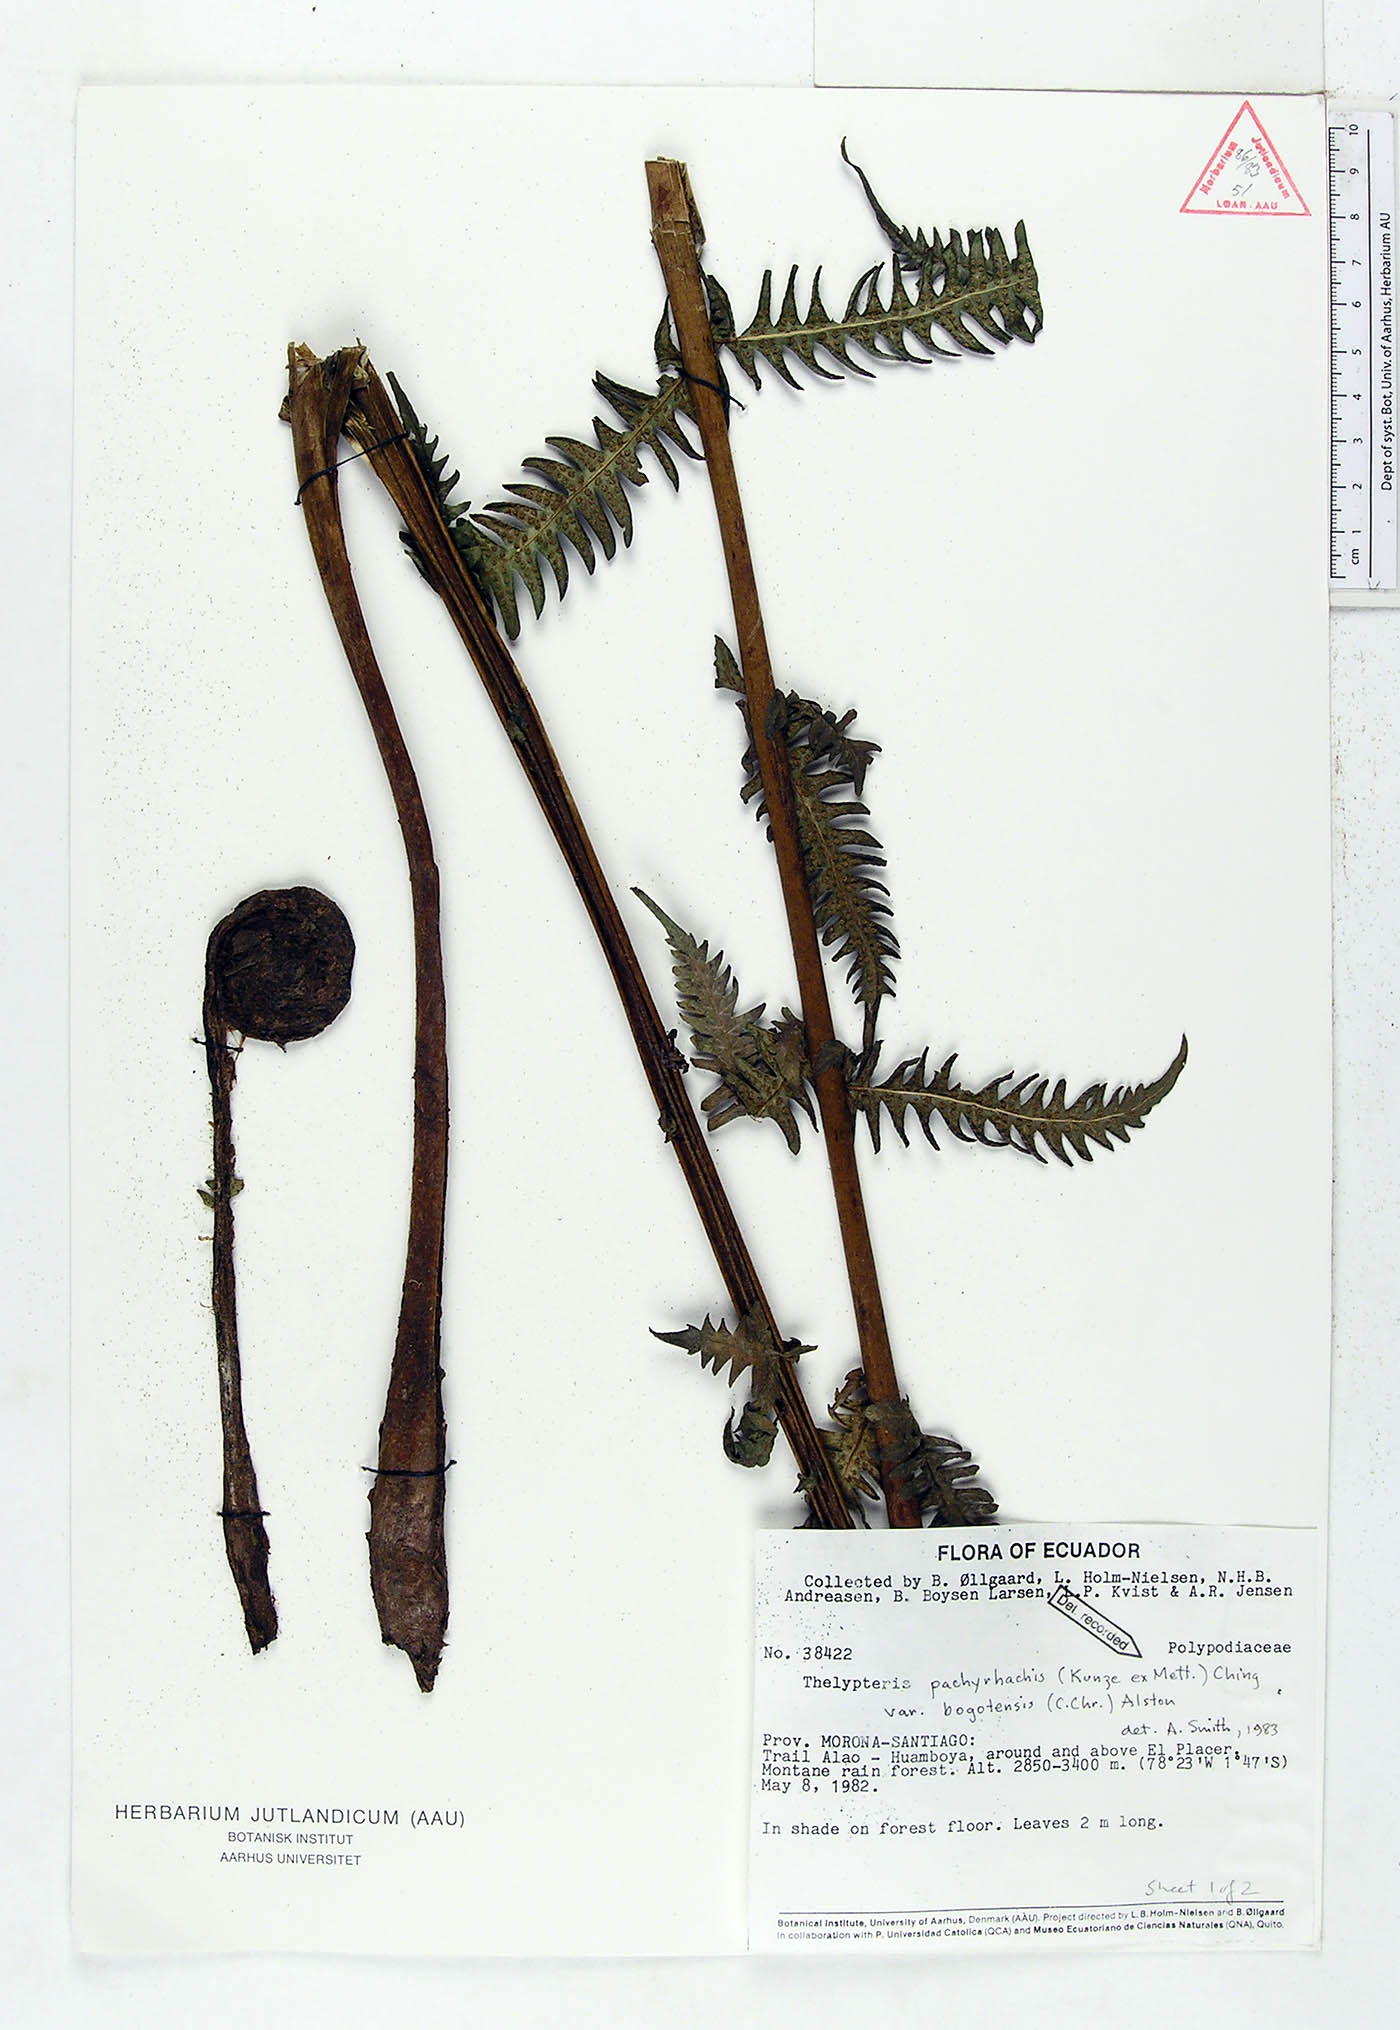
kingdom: Plantae
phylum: Tracheophyta
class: Polypodiopsida
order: Polypodiales
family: Thelypteridaceae
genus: Amauropelta
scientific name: Amauropelta pachyrhachis
